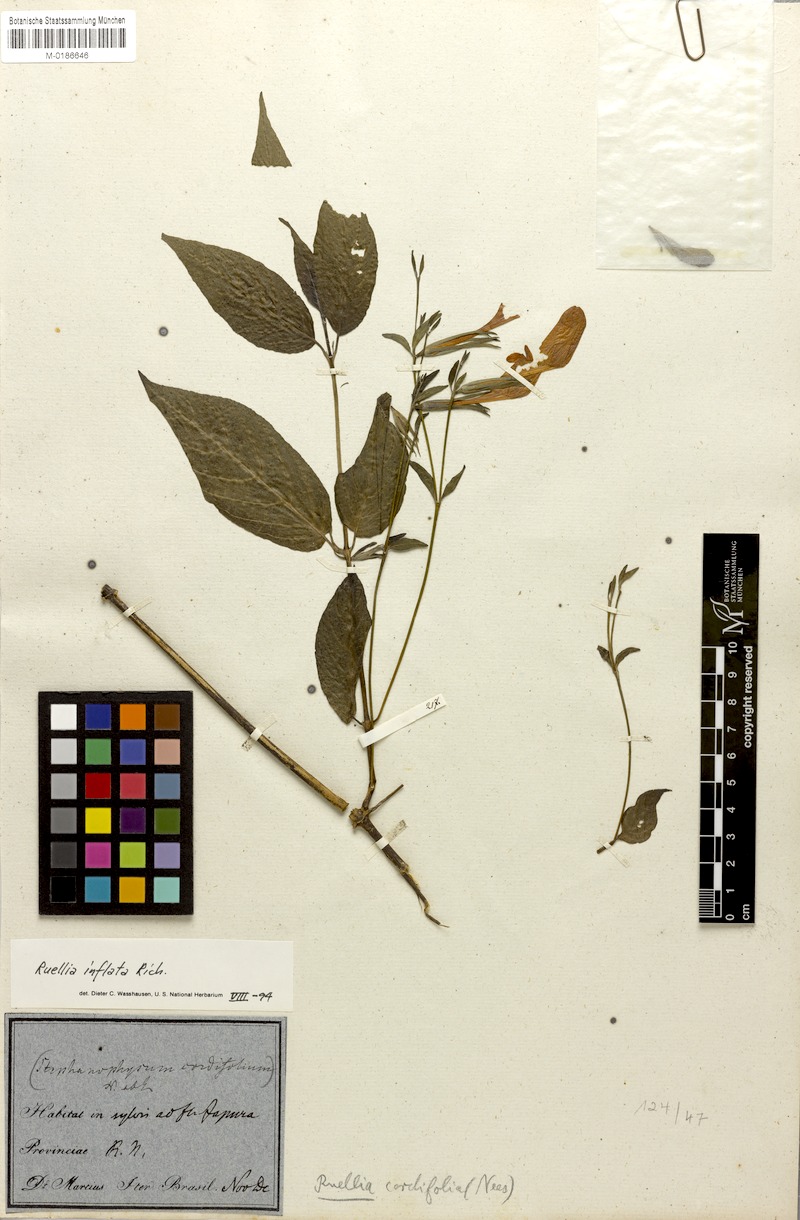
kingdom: Plantae
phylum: Tracheophyta
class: Magnoliopsida
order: Lamiales
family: Acanthaceae
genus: Ruellia
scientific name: Ruellia inflata
